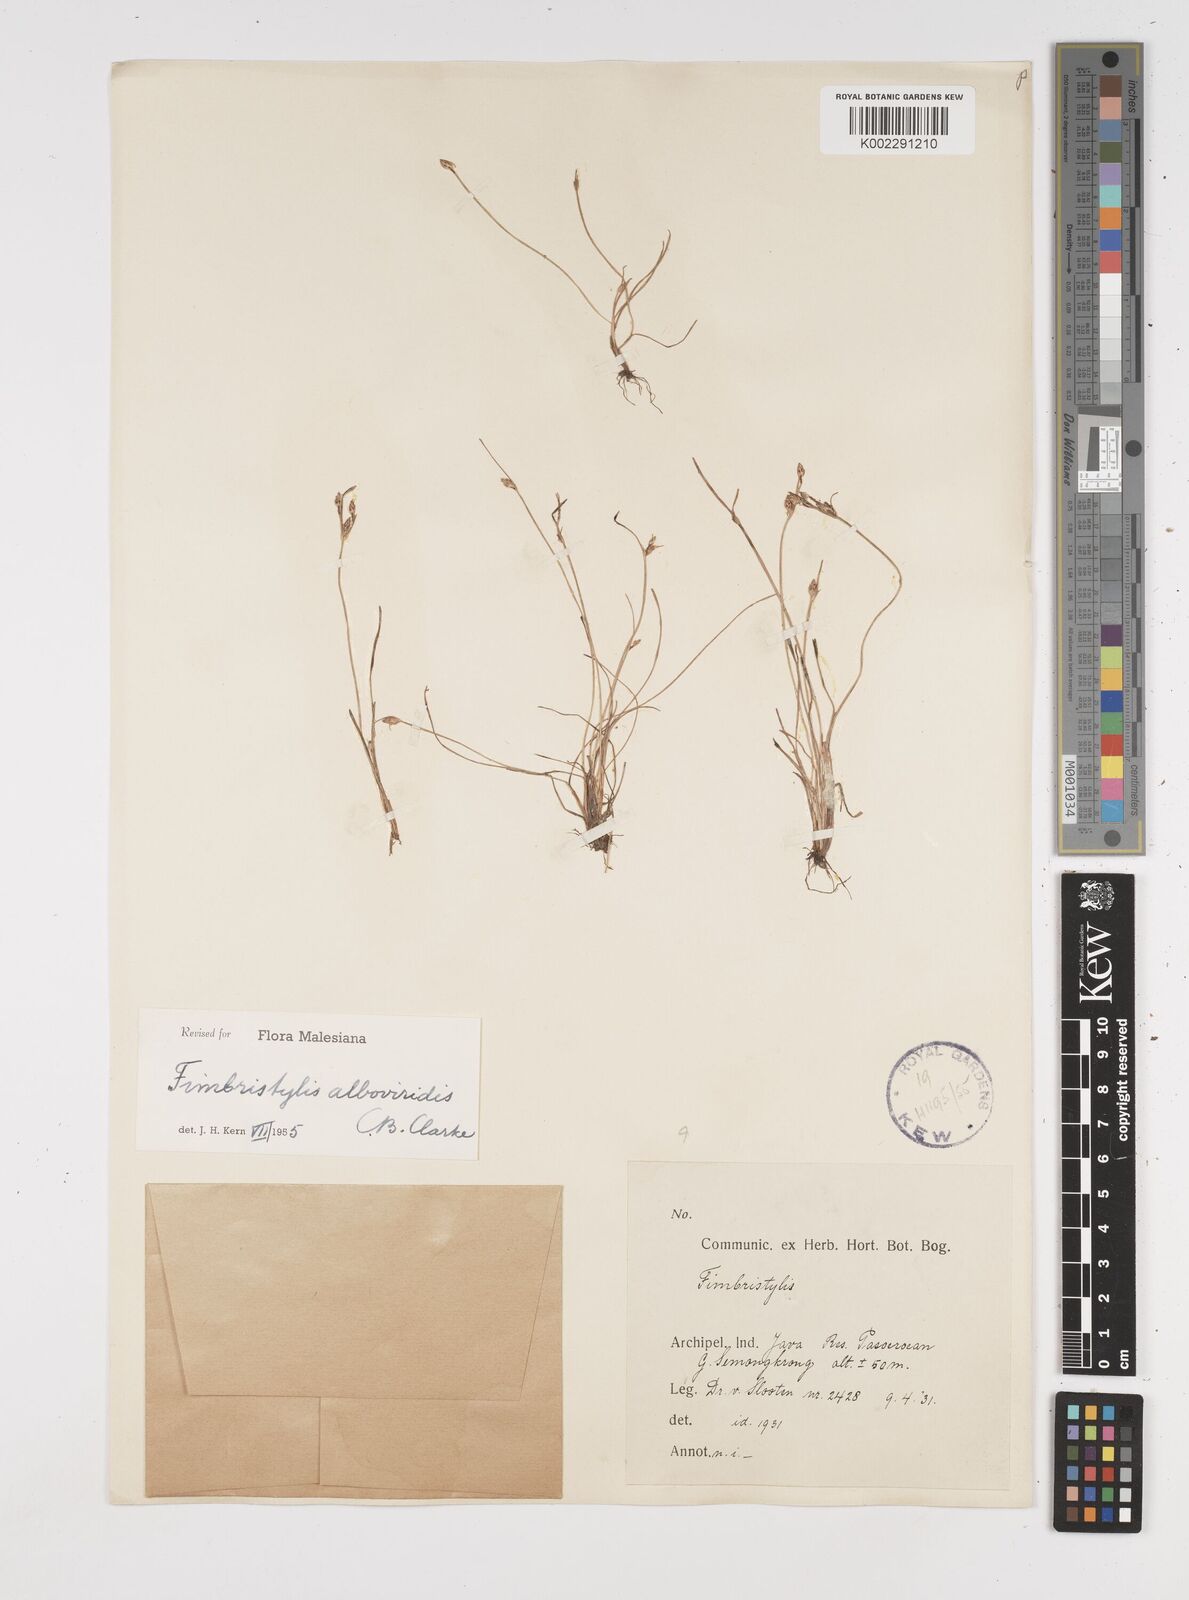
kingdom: Plantae
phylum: Tracheophyta
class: Liliopsida
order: Poales
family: Cyperaceae
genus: Fimbristylis
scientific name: Fimbristylis alboviridis
